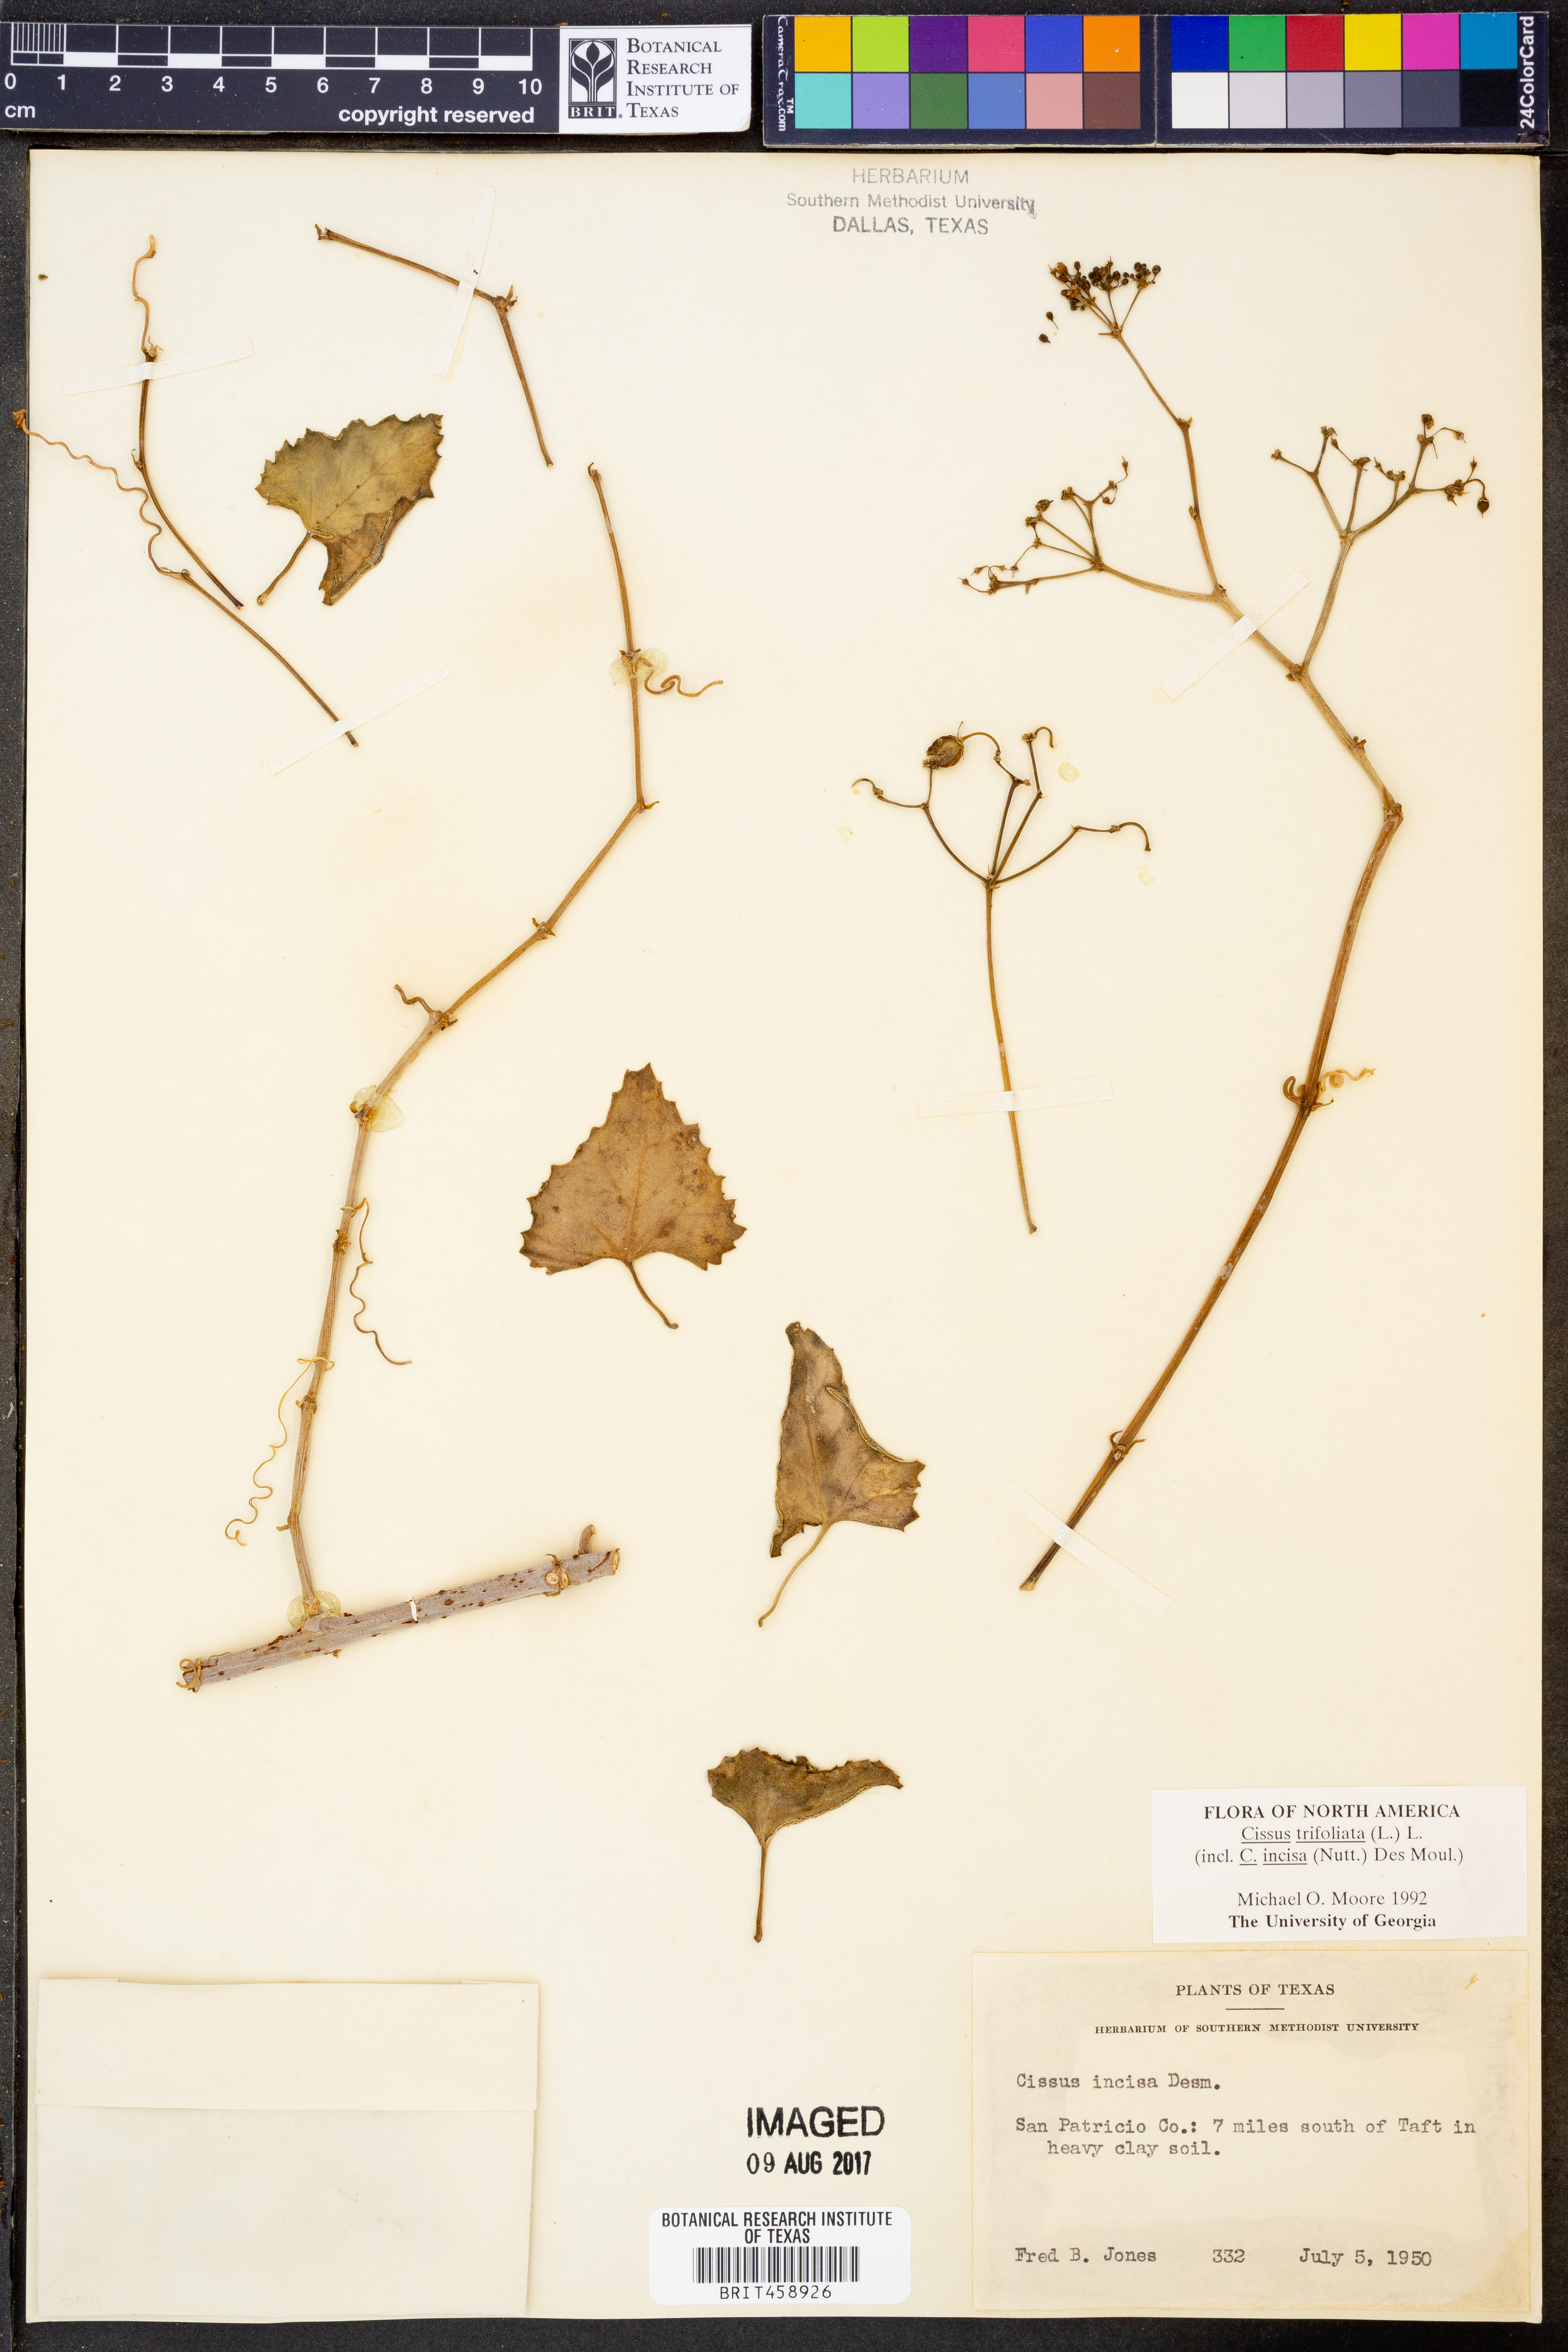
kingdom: Plantae
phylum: Tracheophyta
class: Magnoliopsida
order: Vitales
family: Vitaceae
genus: Cissus
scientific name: Cissus trifoliata
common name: Vine-sorrel
